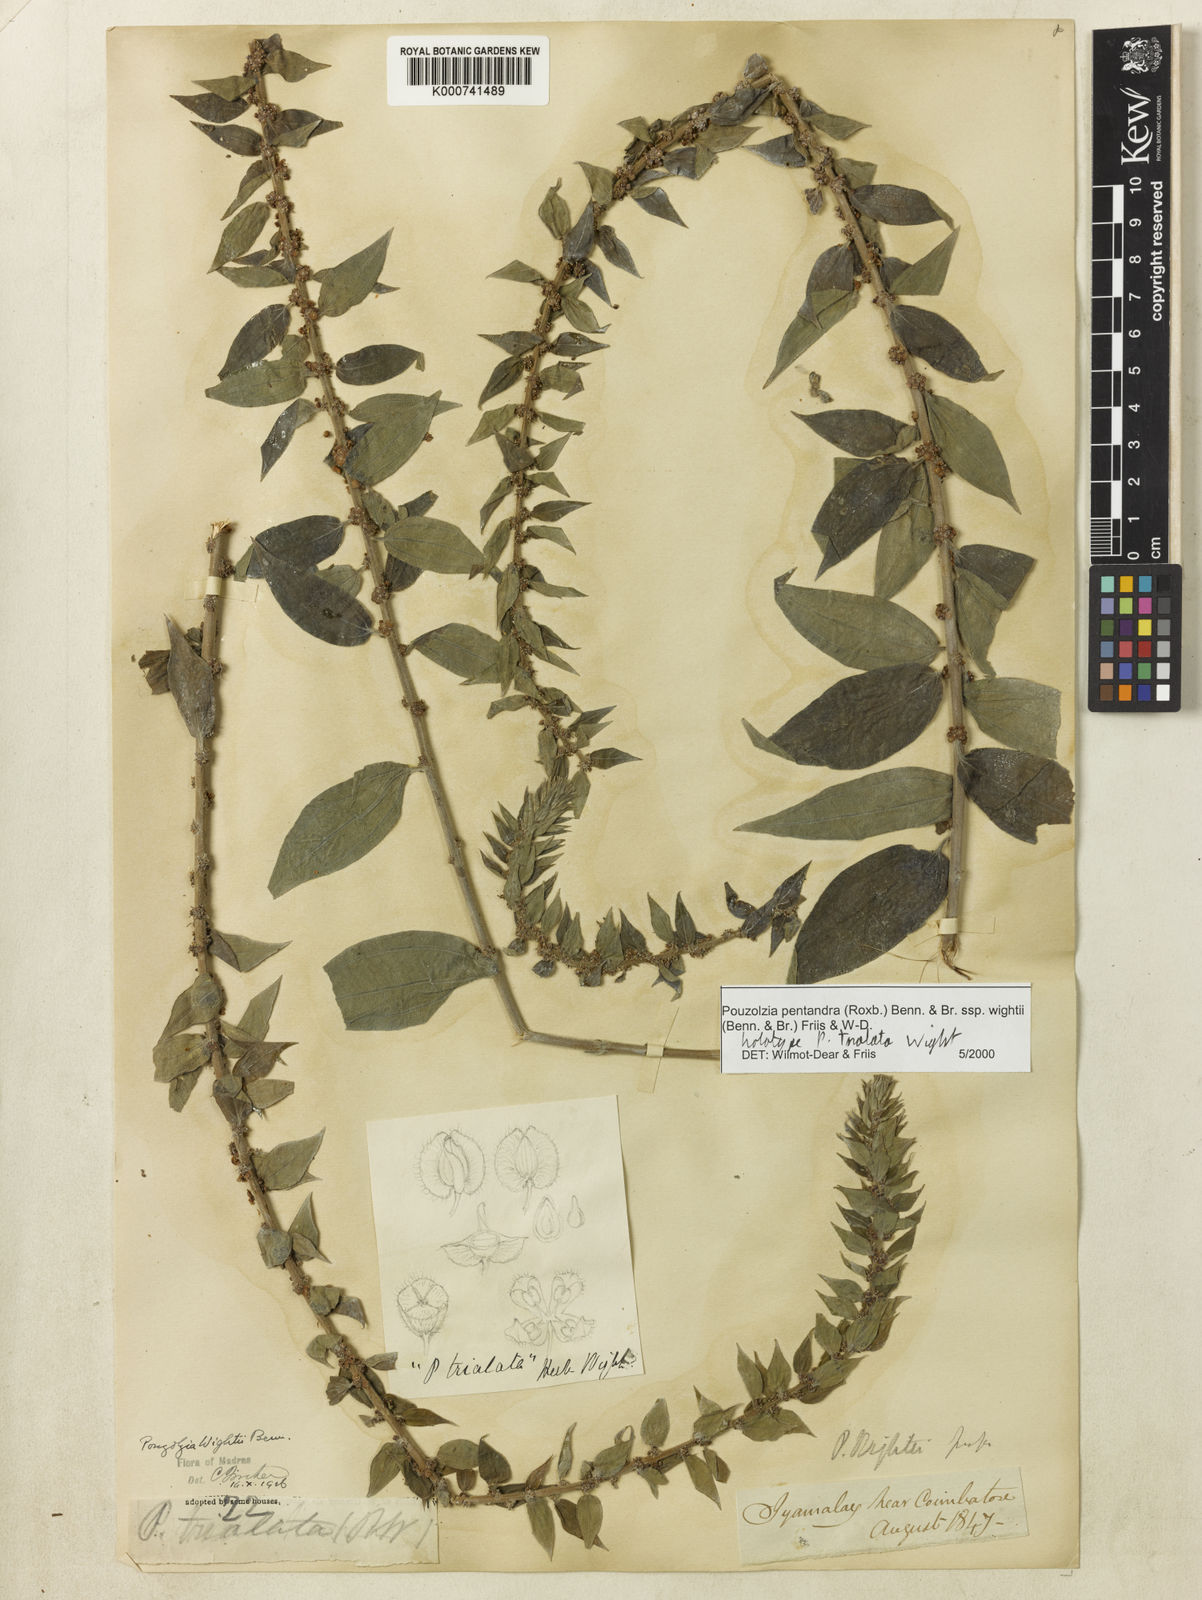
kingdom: Plantae
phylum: Tracheophyta
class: Magnoliopsida
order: Rosales
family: Urticaceae
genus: Gonostegia
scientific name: Gonostegia pentandra
